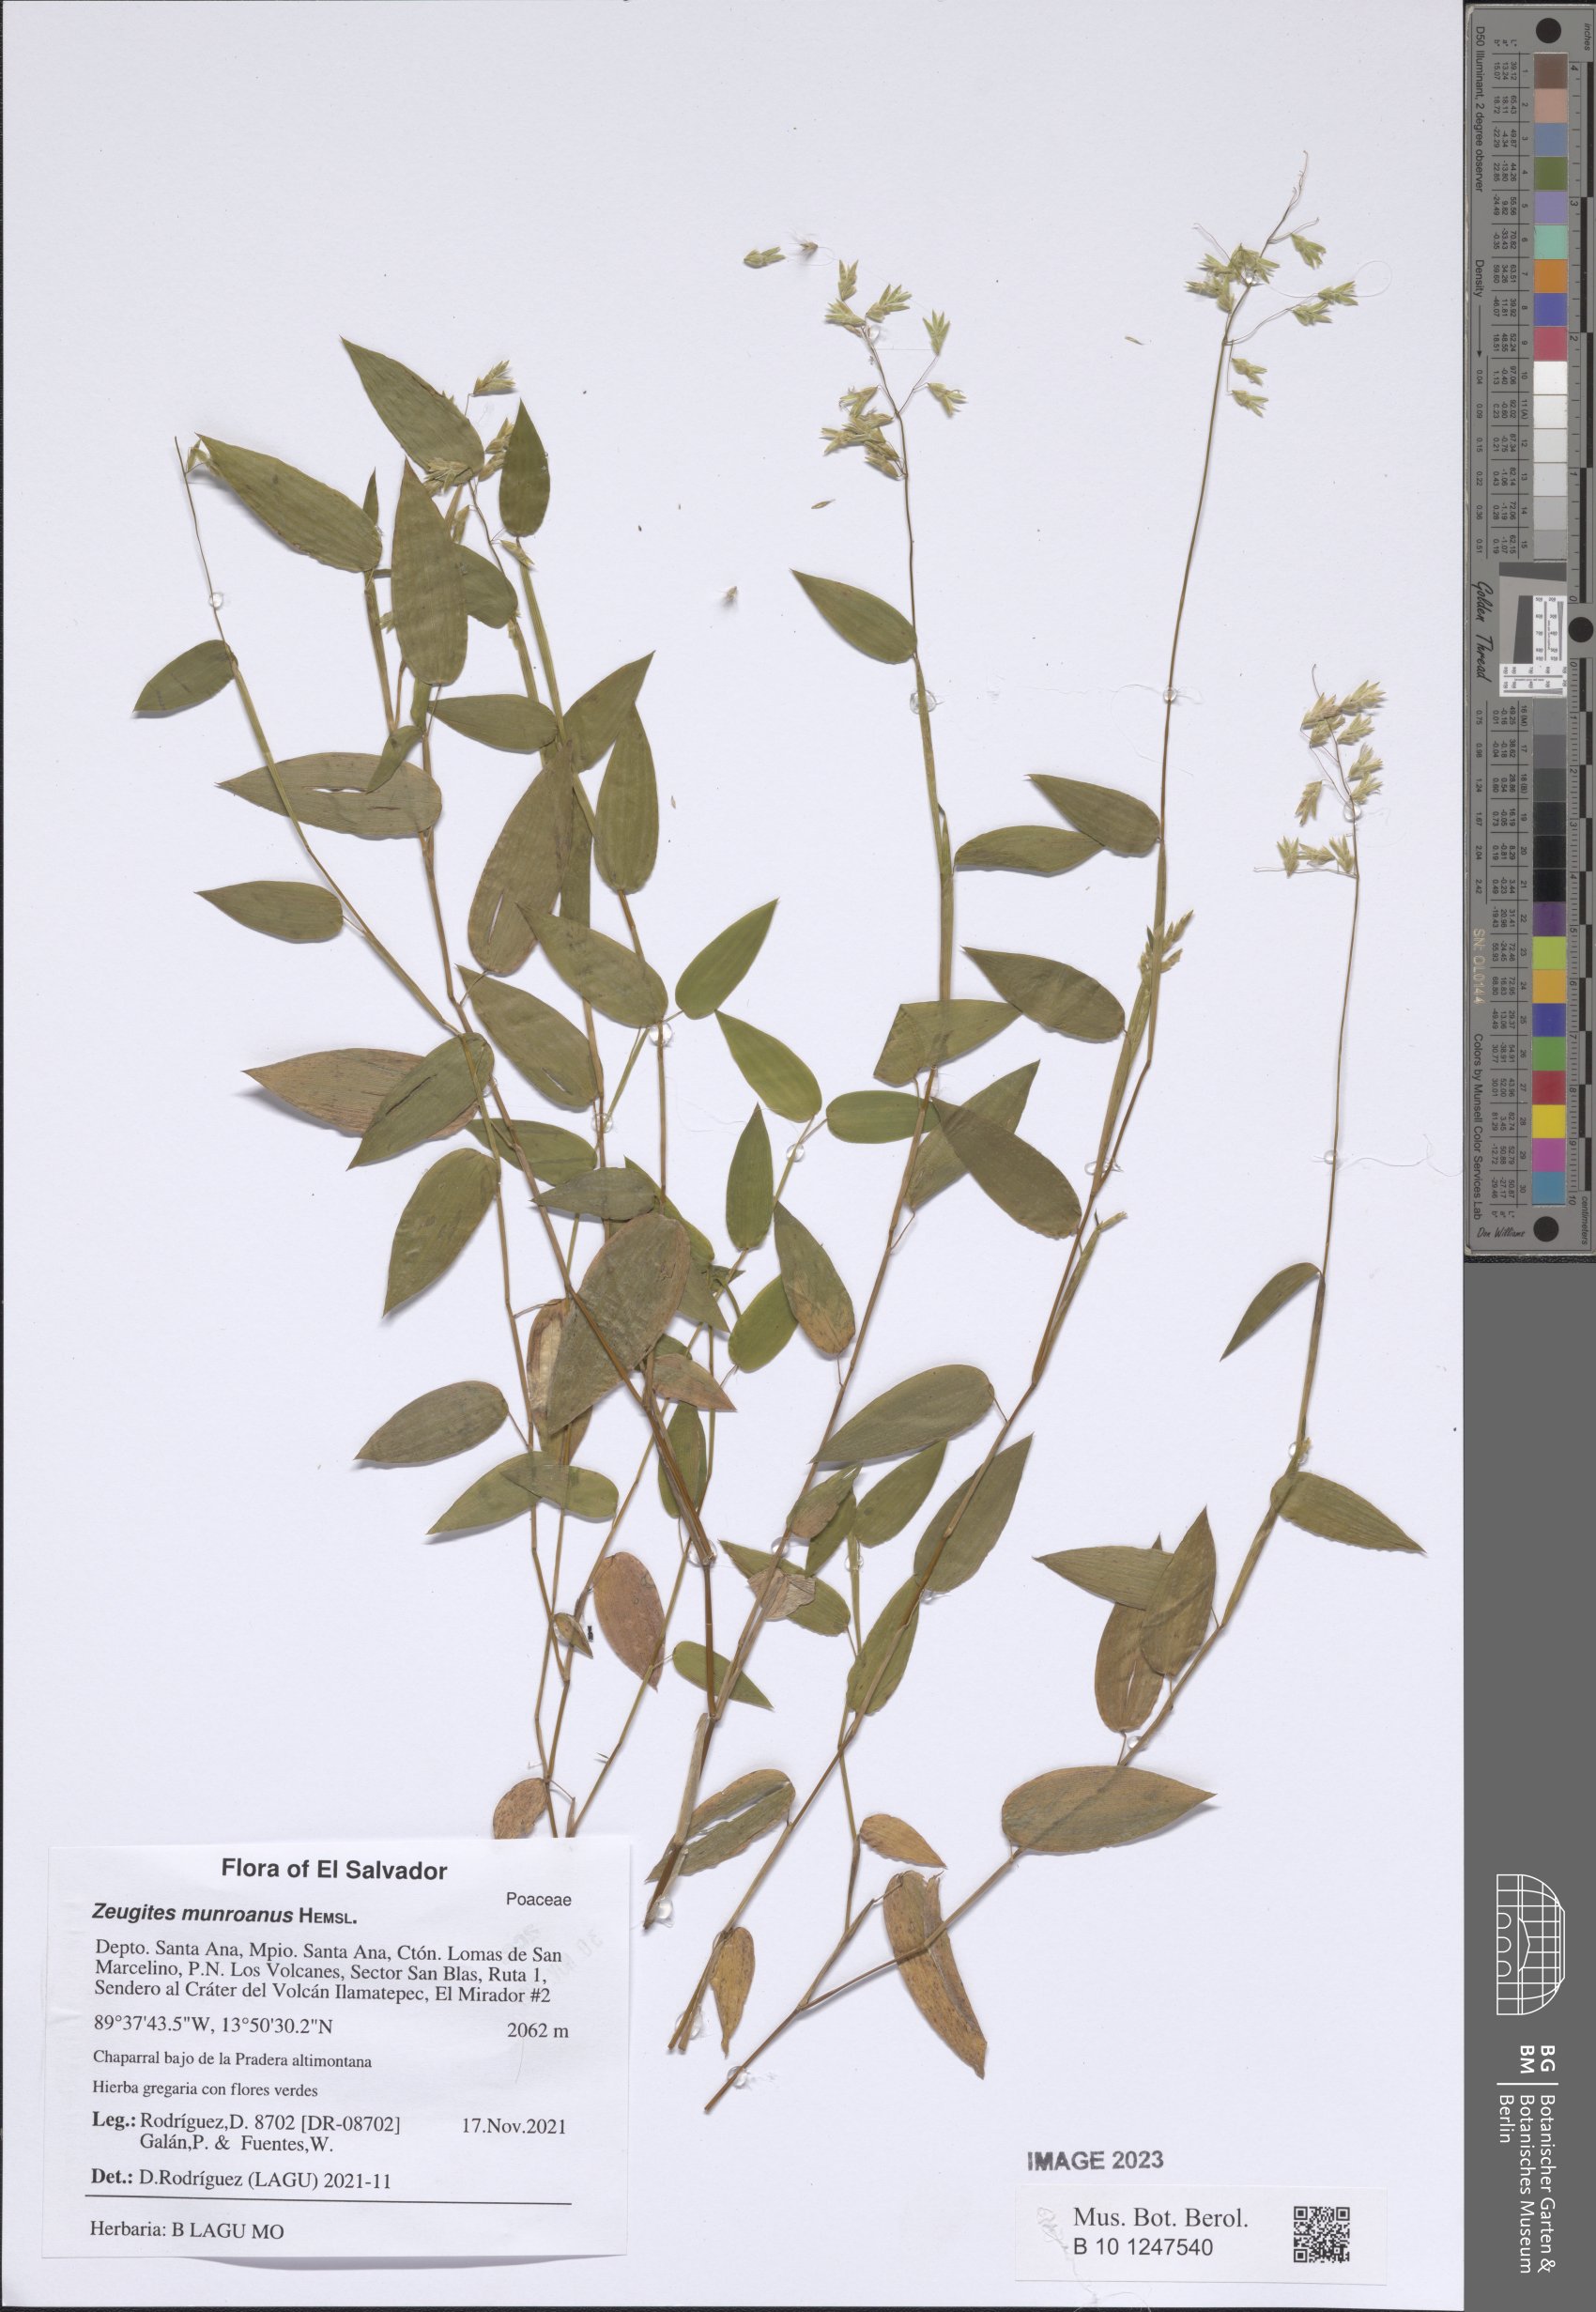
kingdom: Plantae
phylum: Tracheophyta
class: Liliopsida
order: Poales
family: Poaceae
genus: Zeugites
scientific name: Zeugites munroanus
